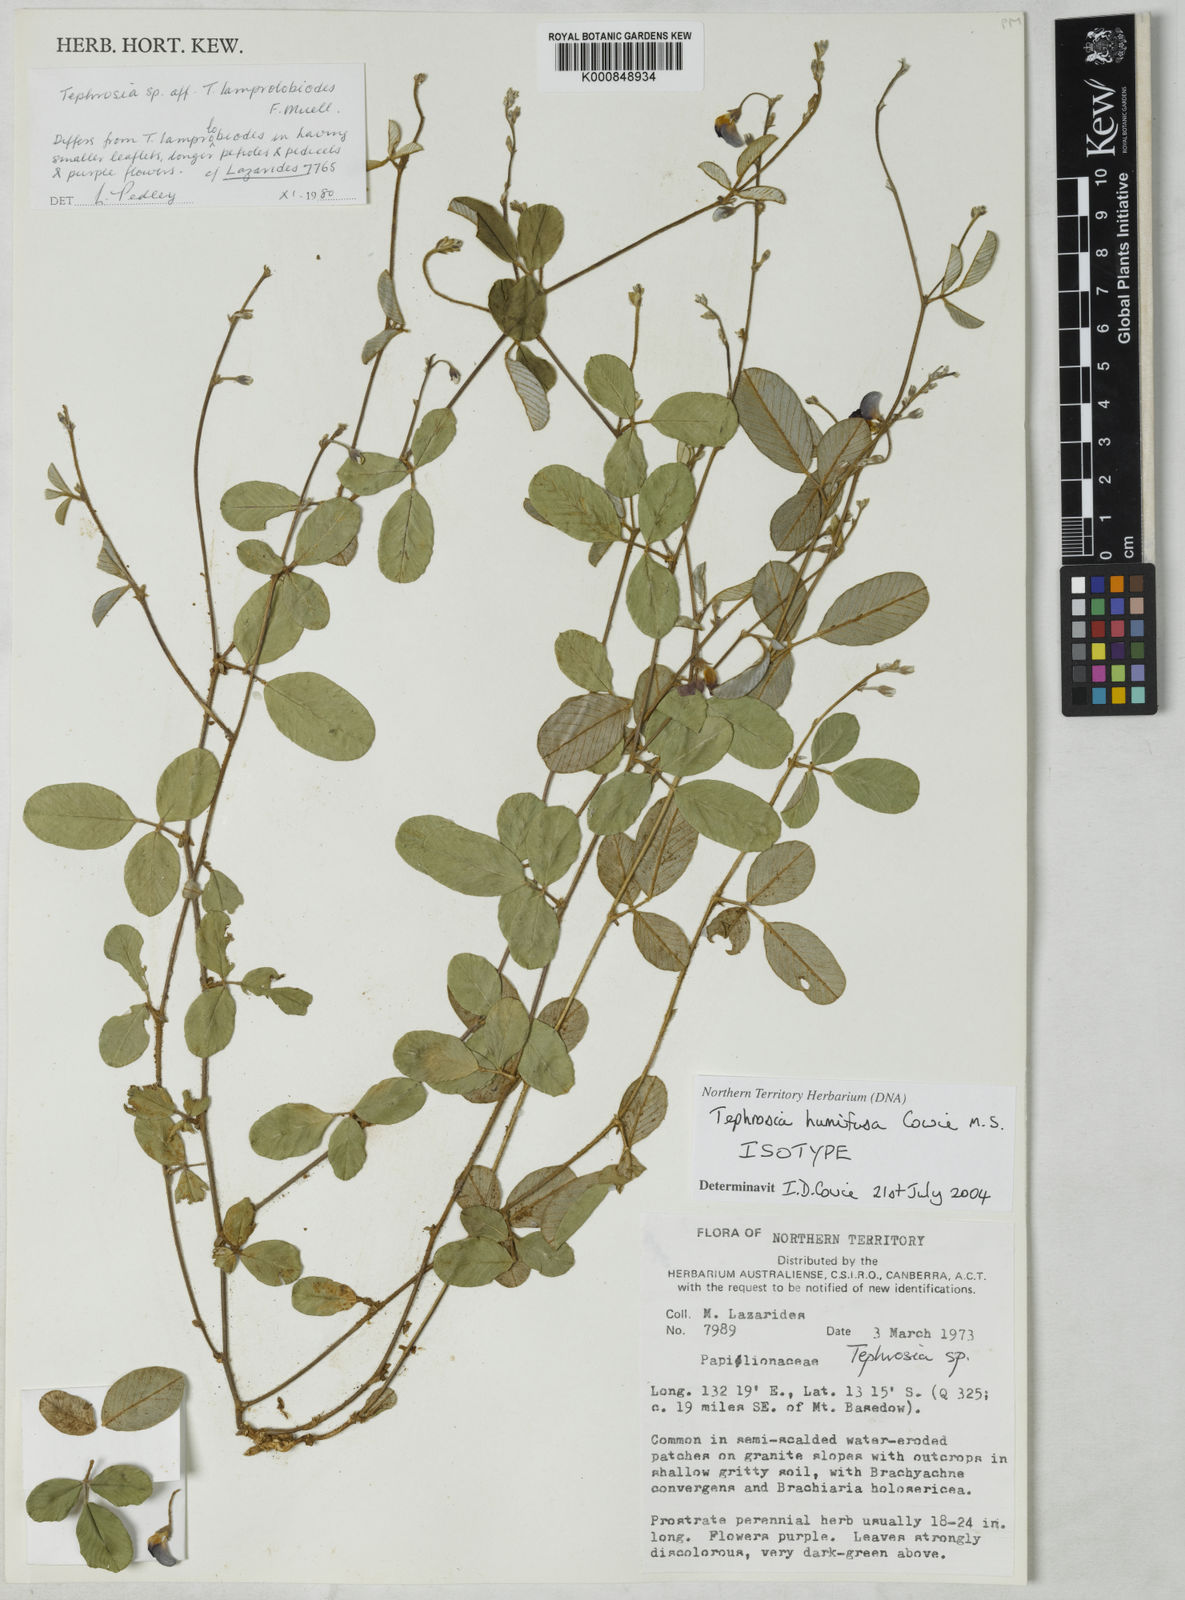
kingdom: Plantae
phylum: Tracheophyta
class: Magnoliopsida
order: Fabales
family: Fabaceae
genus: Tephrosia
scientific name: Tephrosia humifusa
